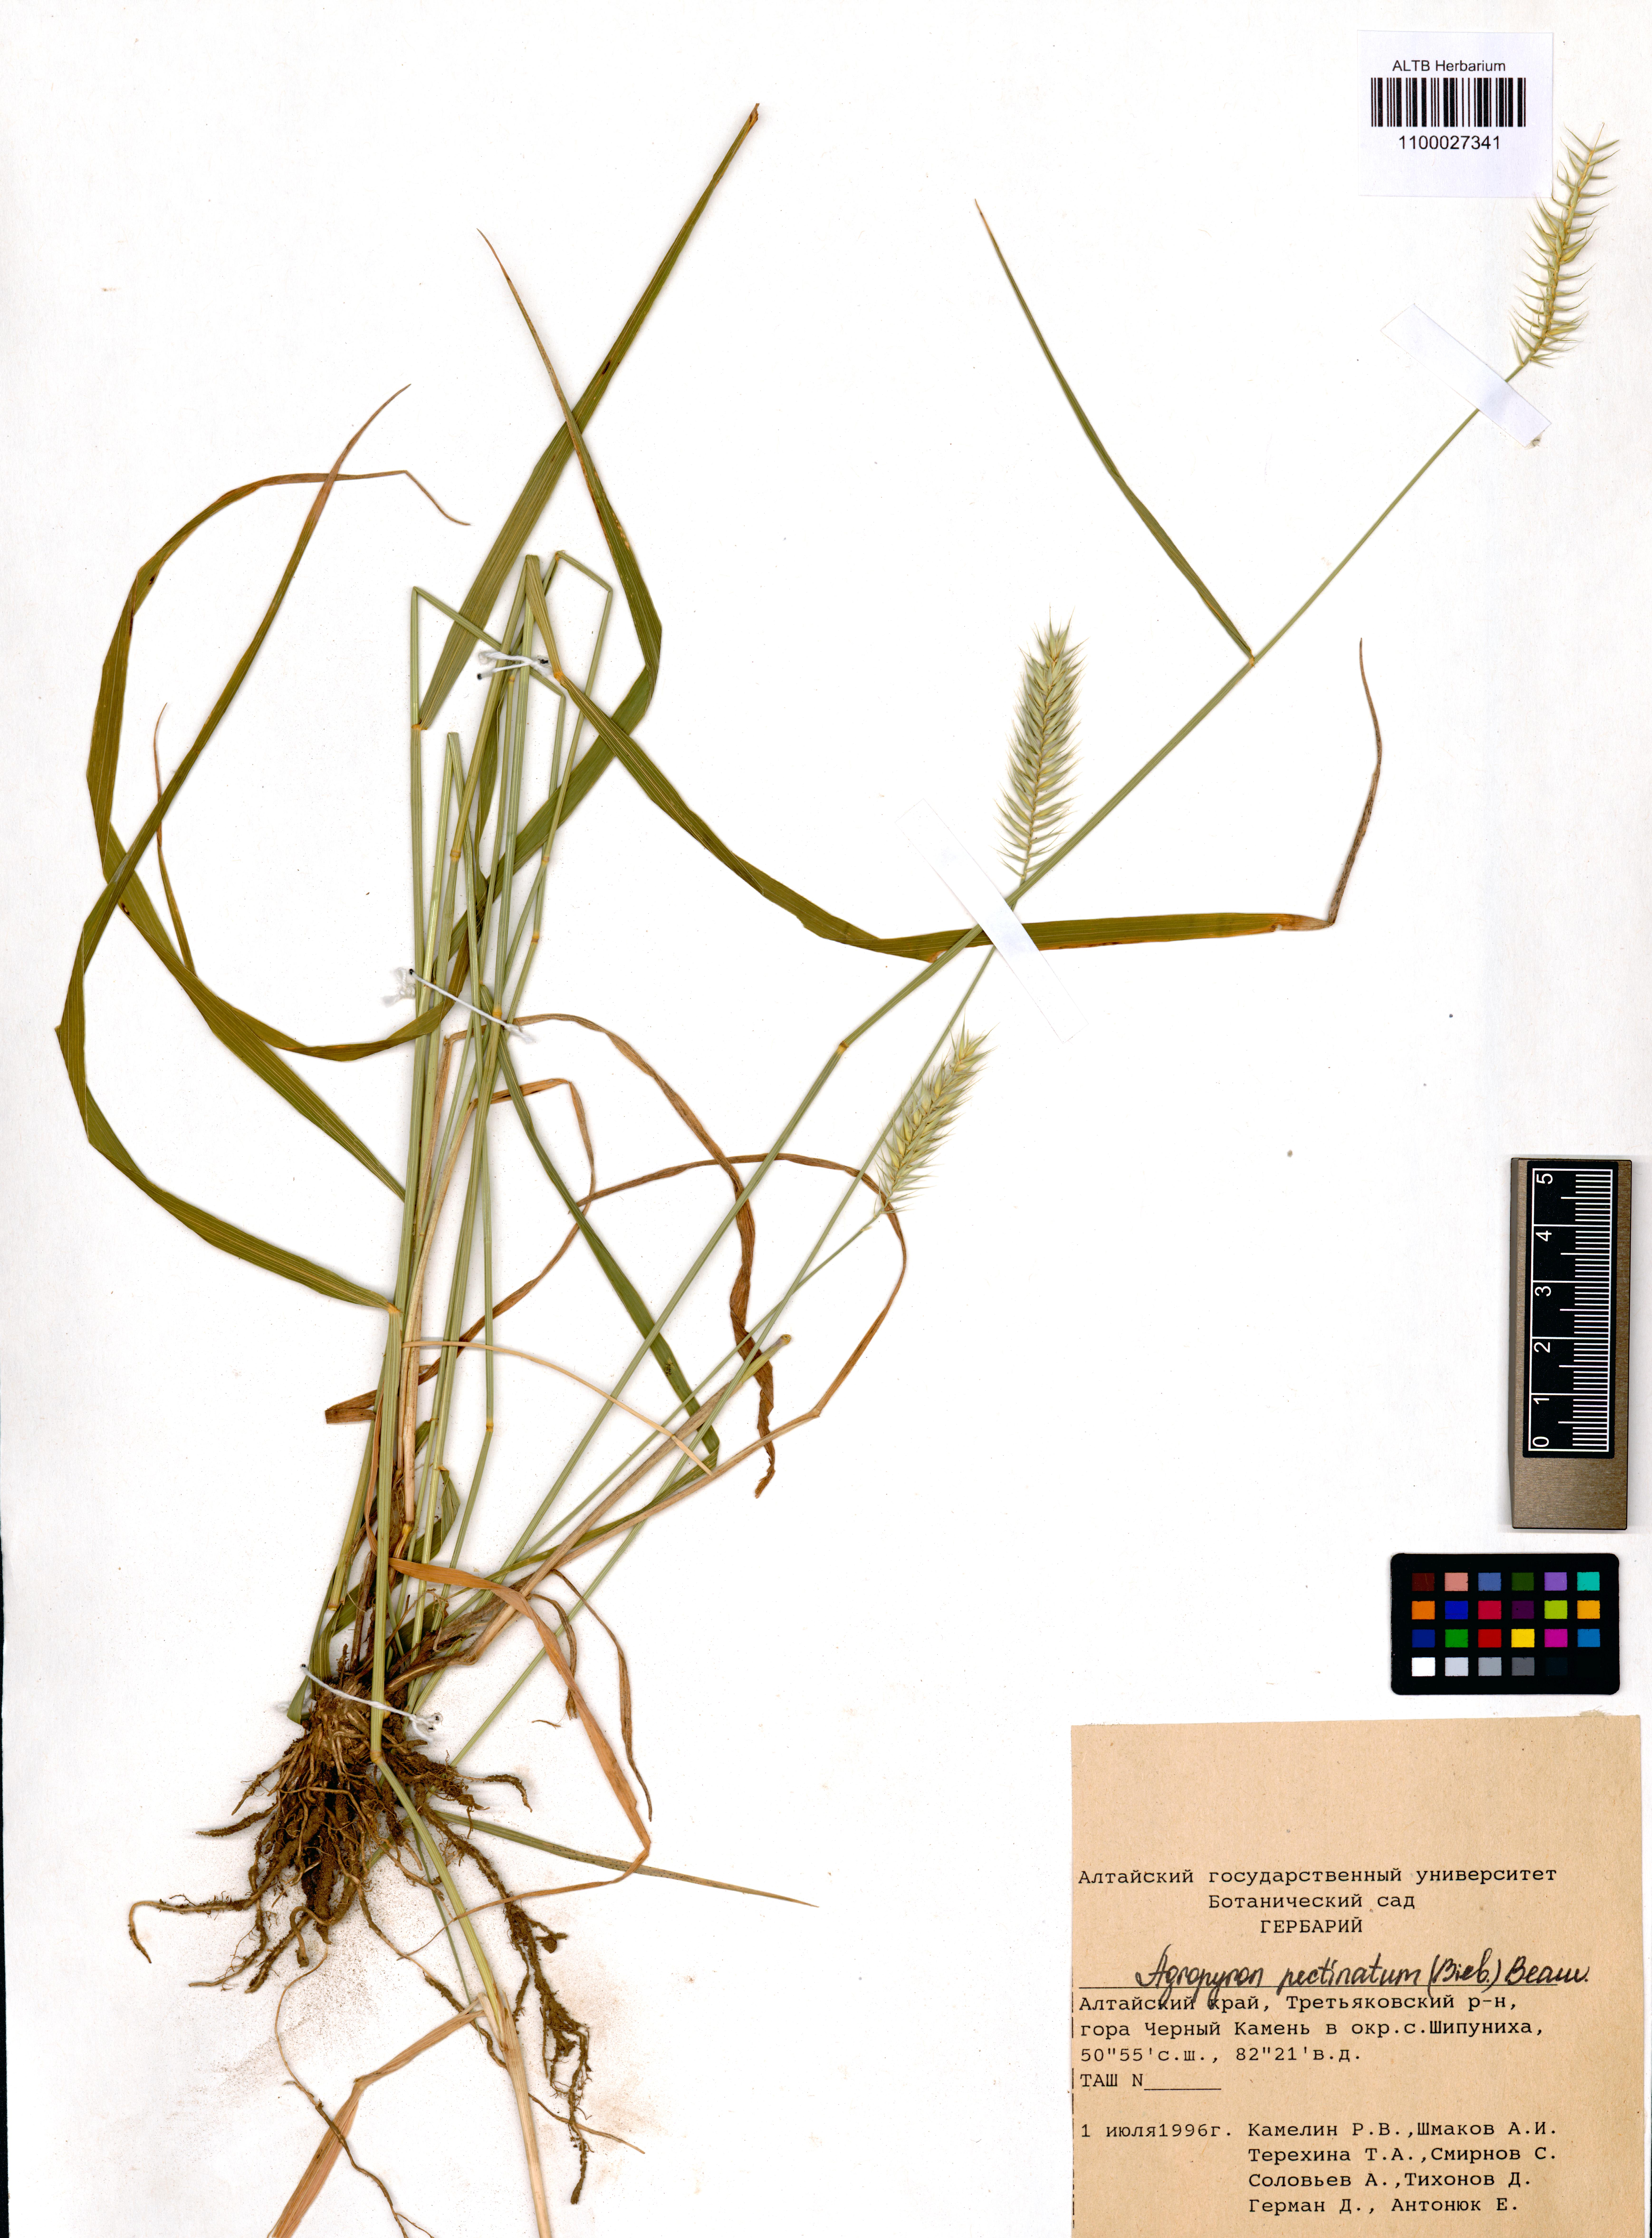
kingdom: Plantae
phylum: Tracheophyta
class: Liliopsida
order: Poales
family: Poaceae
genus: Agropyron
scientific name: Agropyron cristatum
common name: Crested wheatgrass
